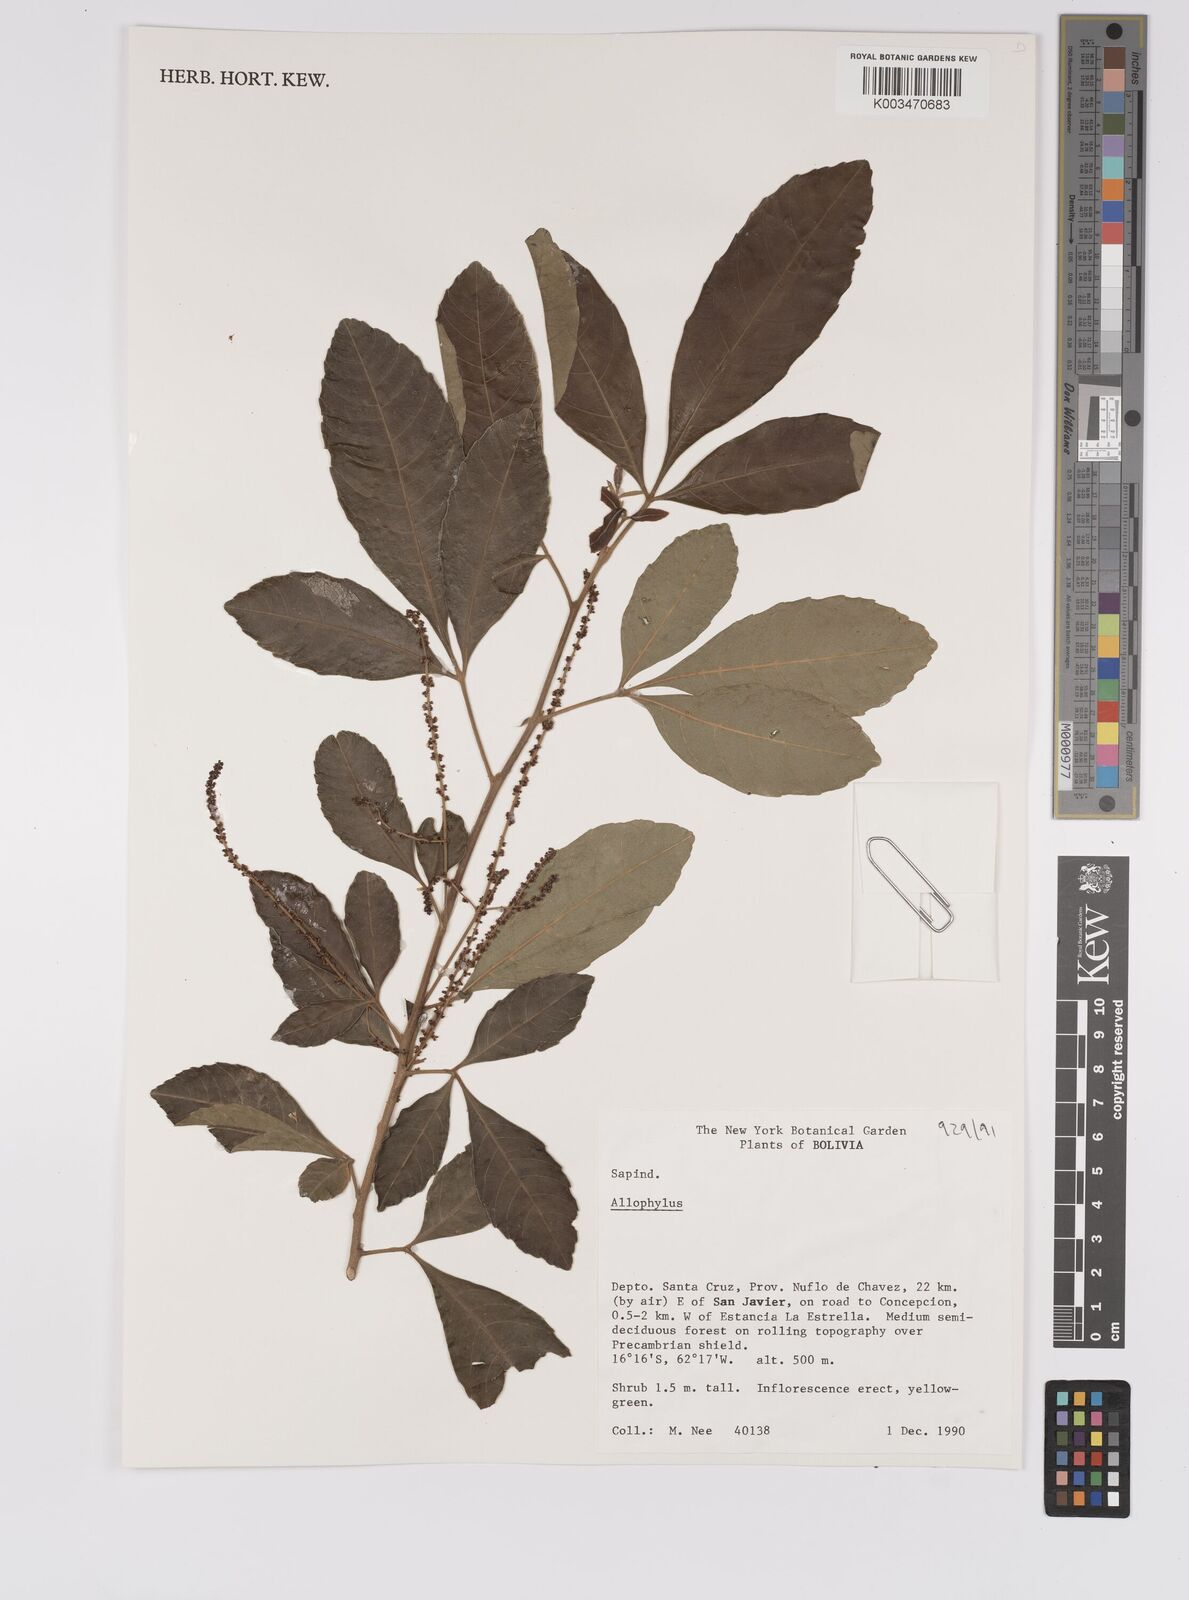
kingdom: Plantae
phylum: Tracheophyta
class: Magnoliopsida
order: Sapindales
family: Sapindaceae
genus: Allophylus
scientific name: Allophylus
